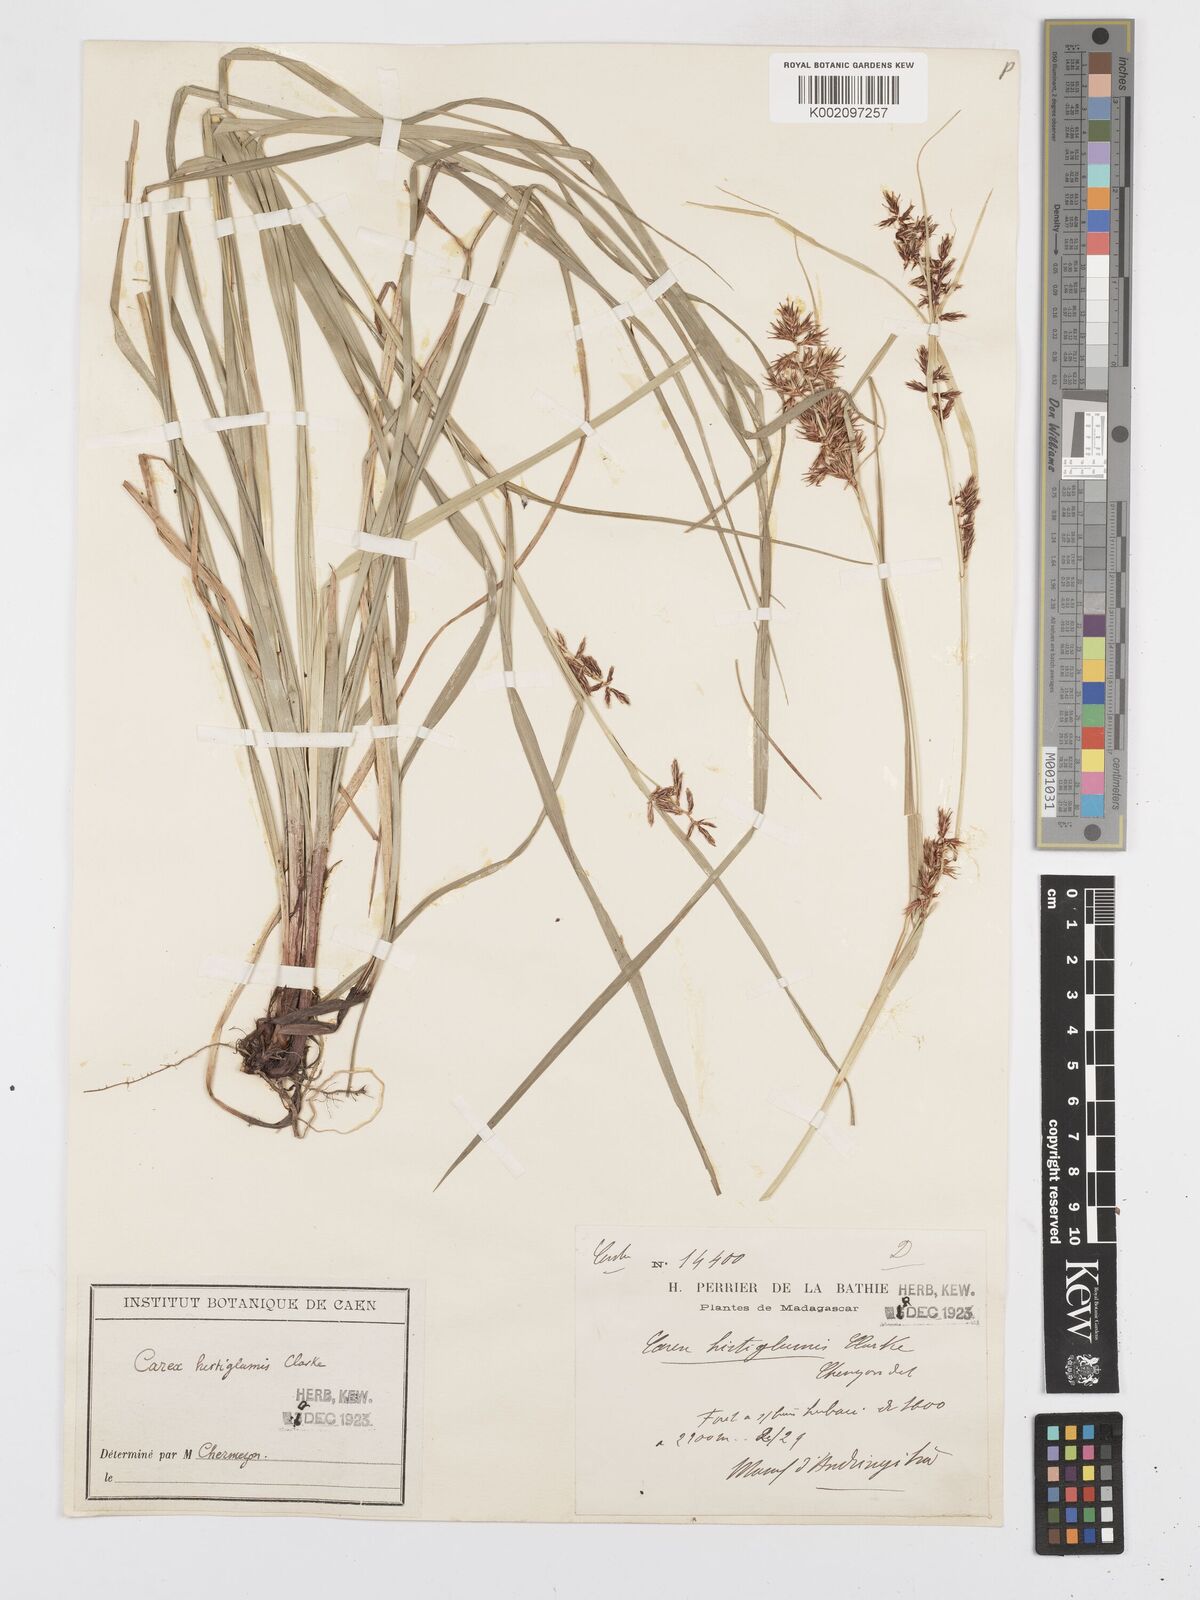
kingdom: Plantae
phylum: Tracheophyta
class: Liliopsida
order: Poales
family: Cyperaceae
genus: Carex
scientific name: Carex hirtigluma
